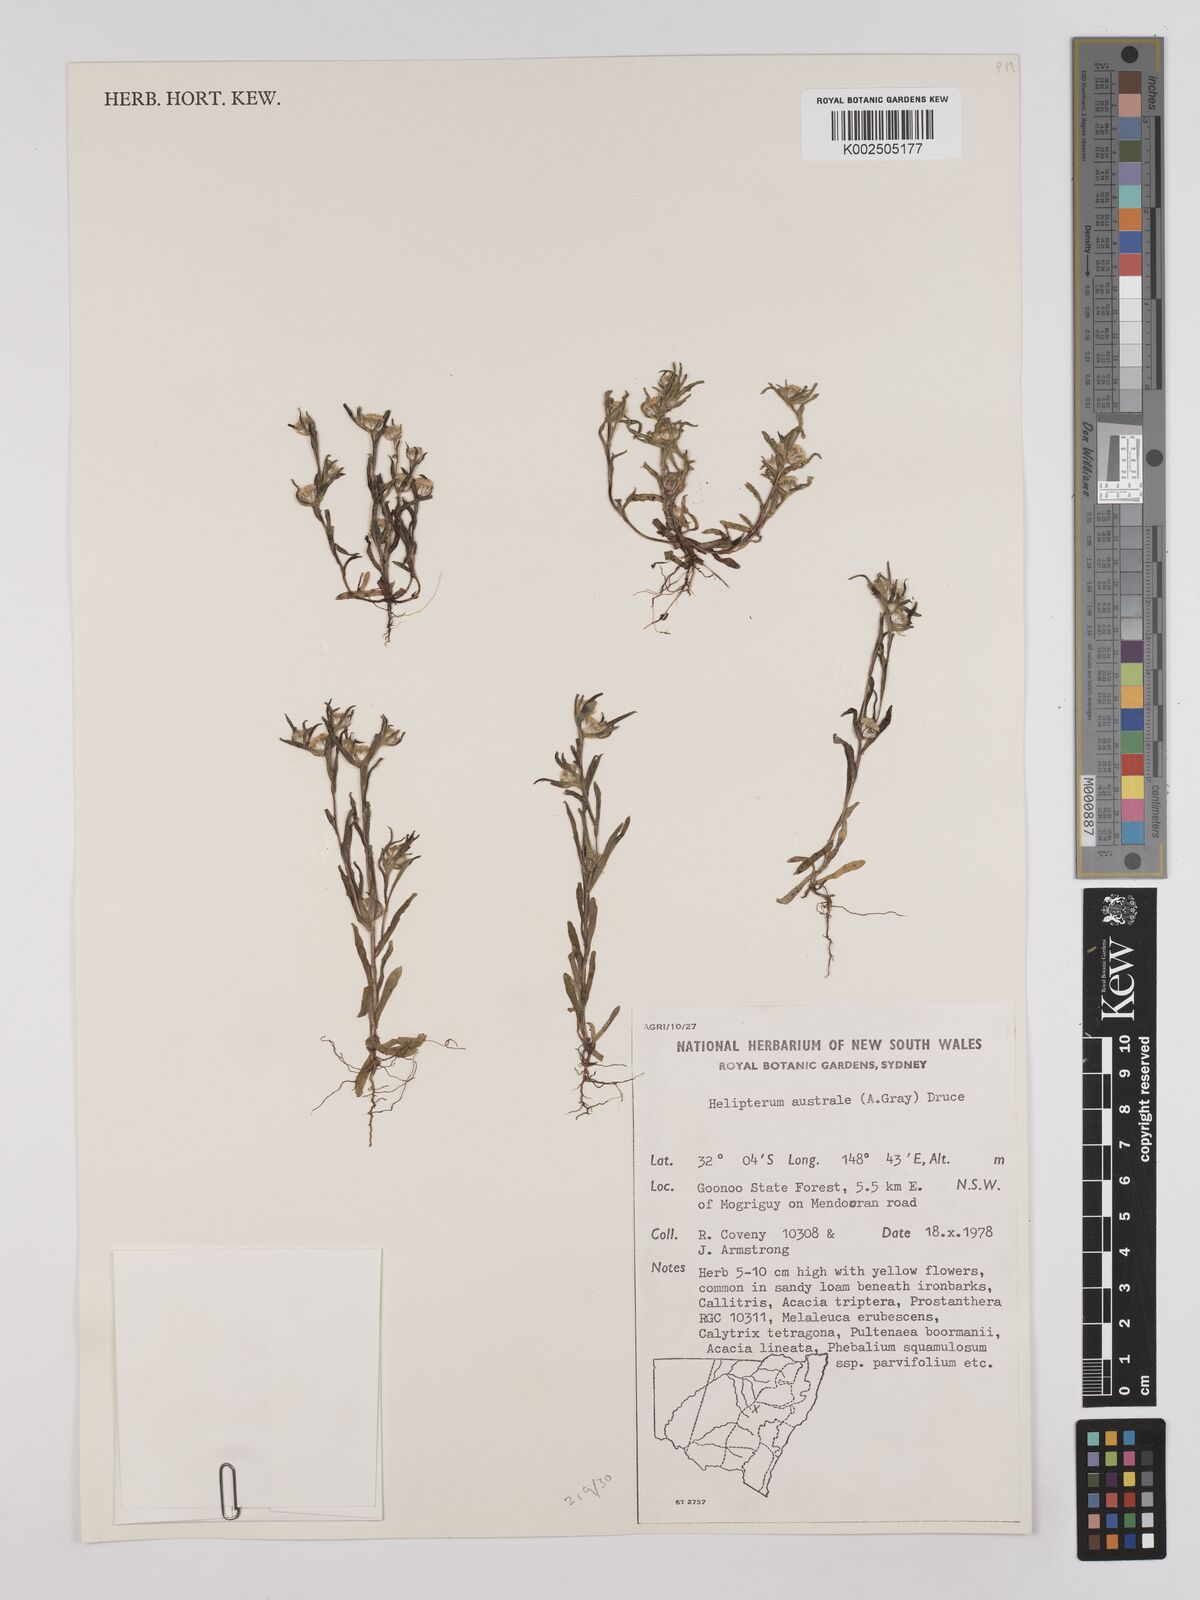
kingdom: Plantae
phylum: Tracheophyta
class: Magnoliopsida
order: Asterales
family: Asteraceae
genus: Triptilodiscus
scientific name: Triptilodiscus pygmaeus
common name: Common sunray
